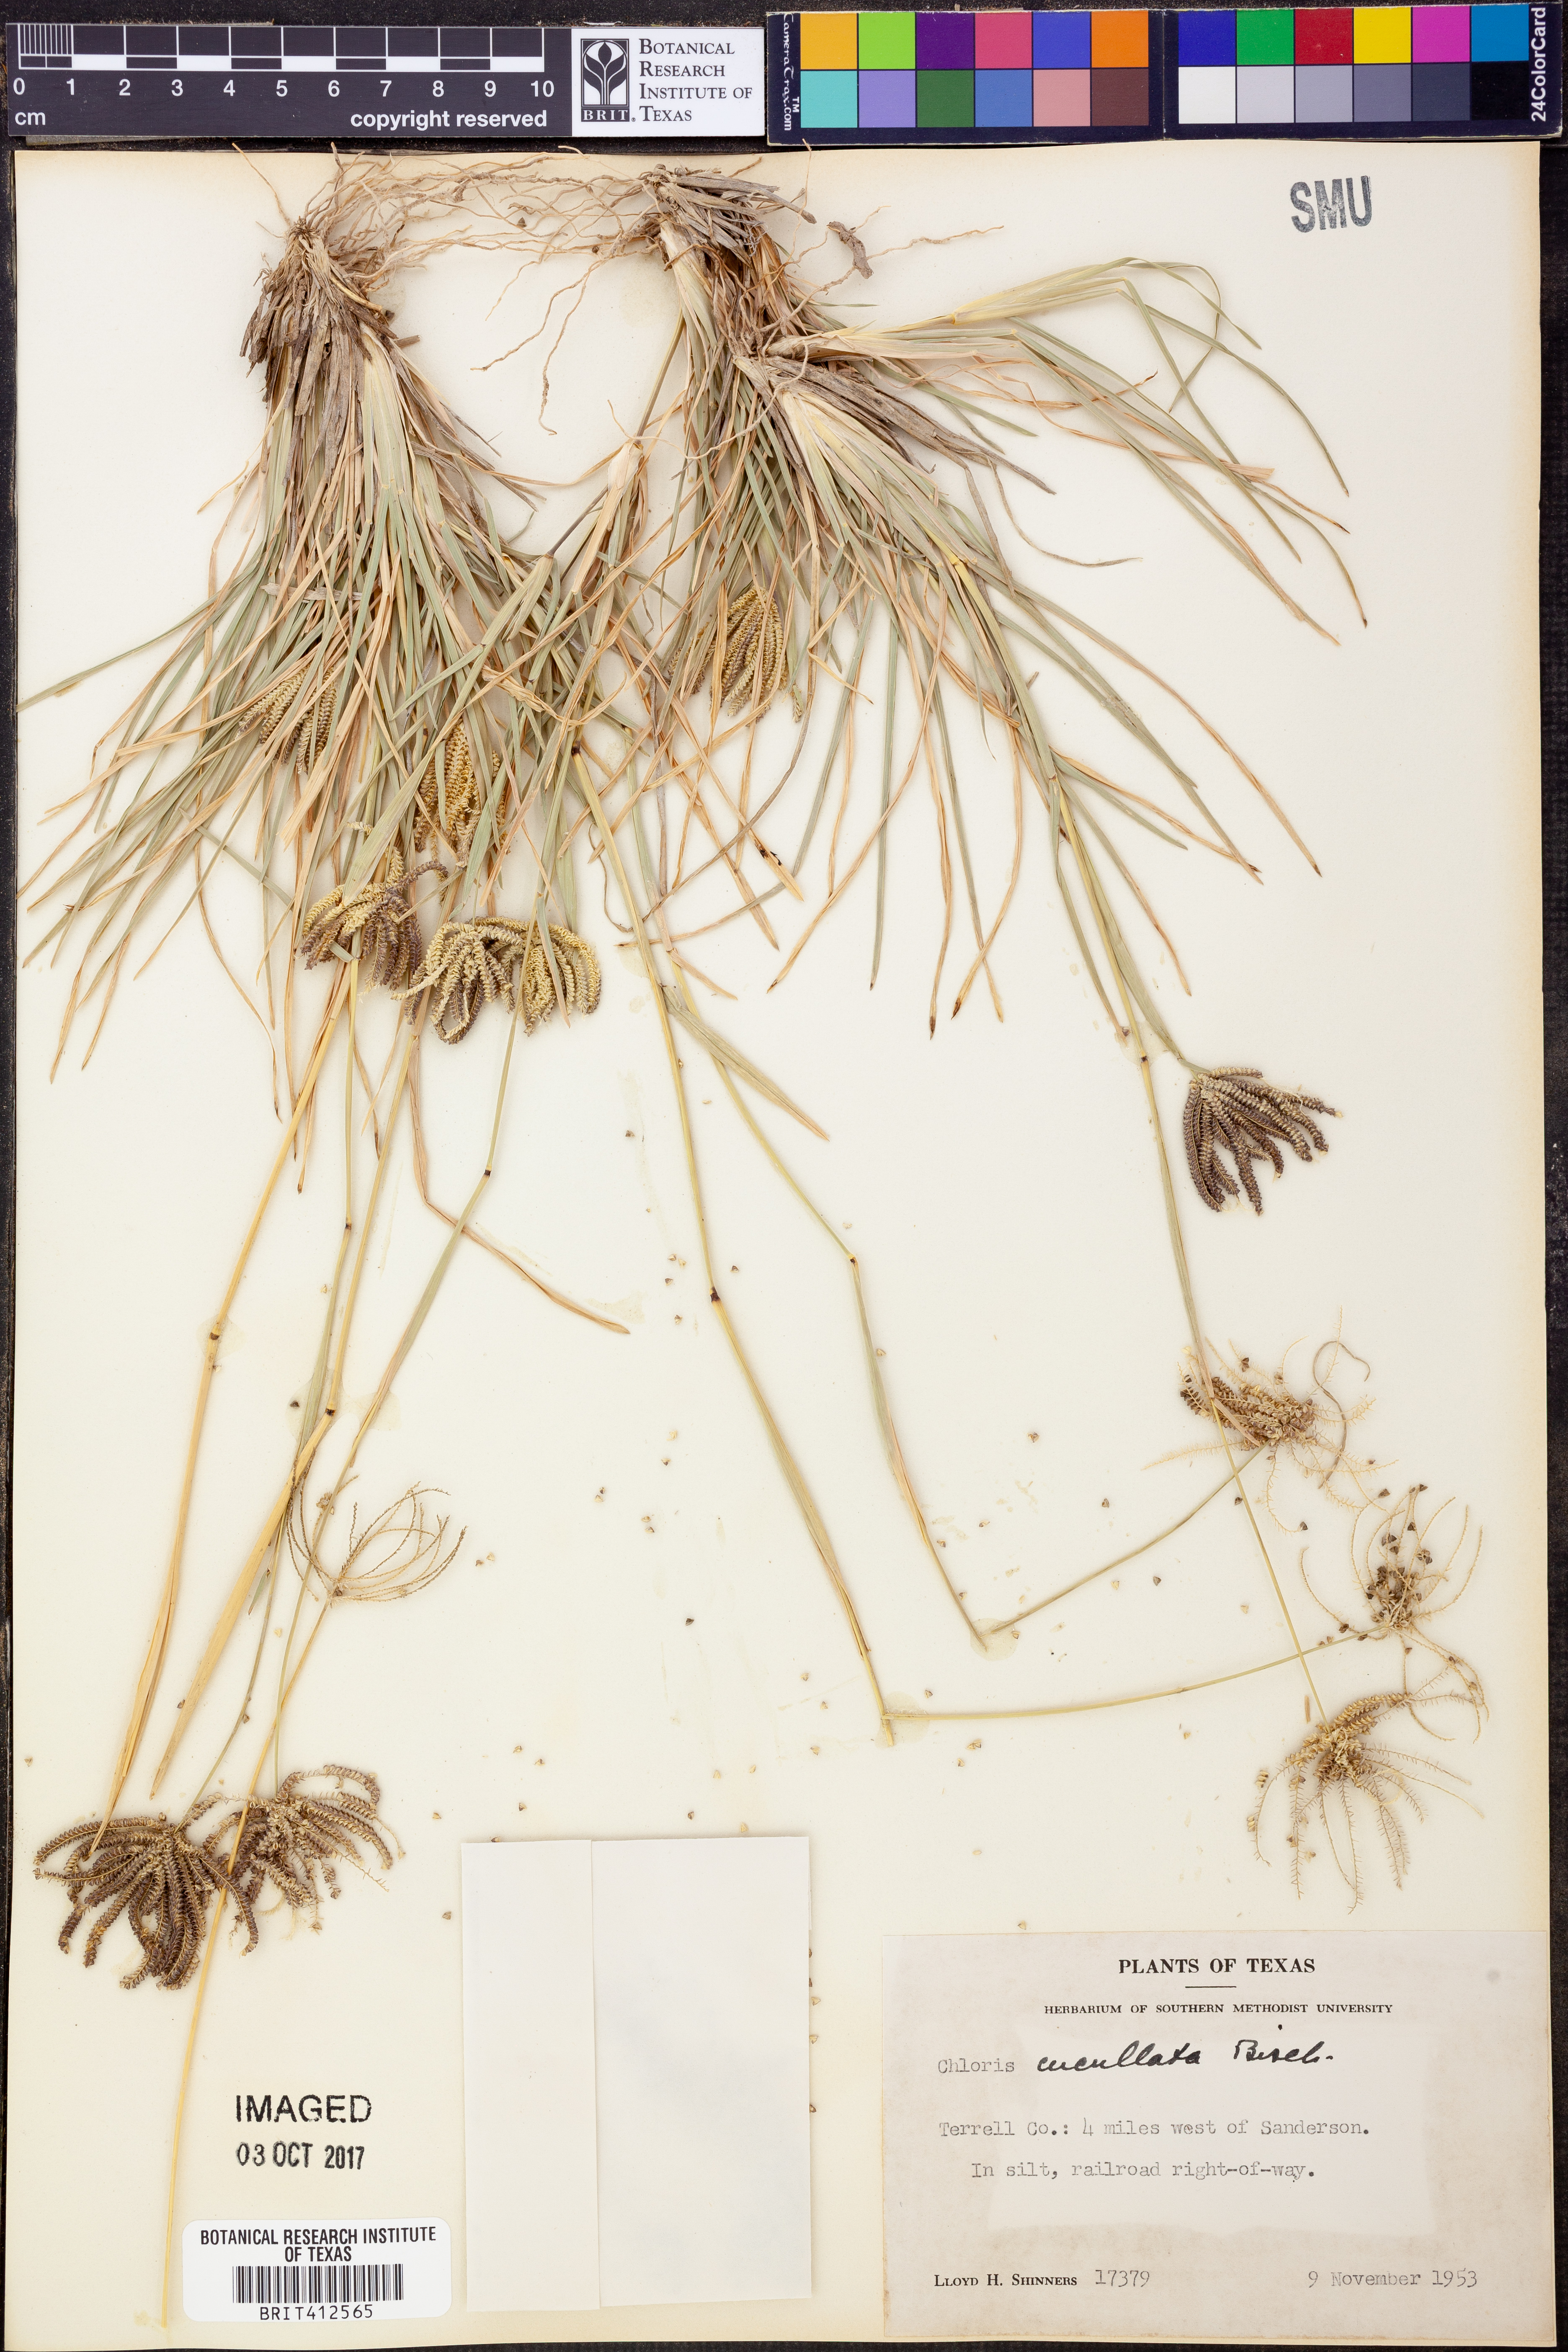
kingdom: Plantae
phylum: Tracheophyta
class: Liliopsida
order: Poales
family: Poaceae
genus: Chloris
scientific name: Chloris cucullata
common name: Hooded windmill grass
